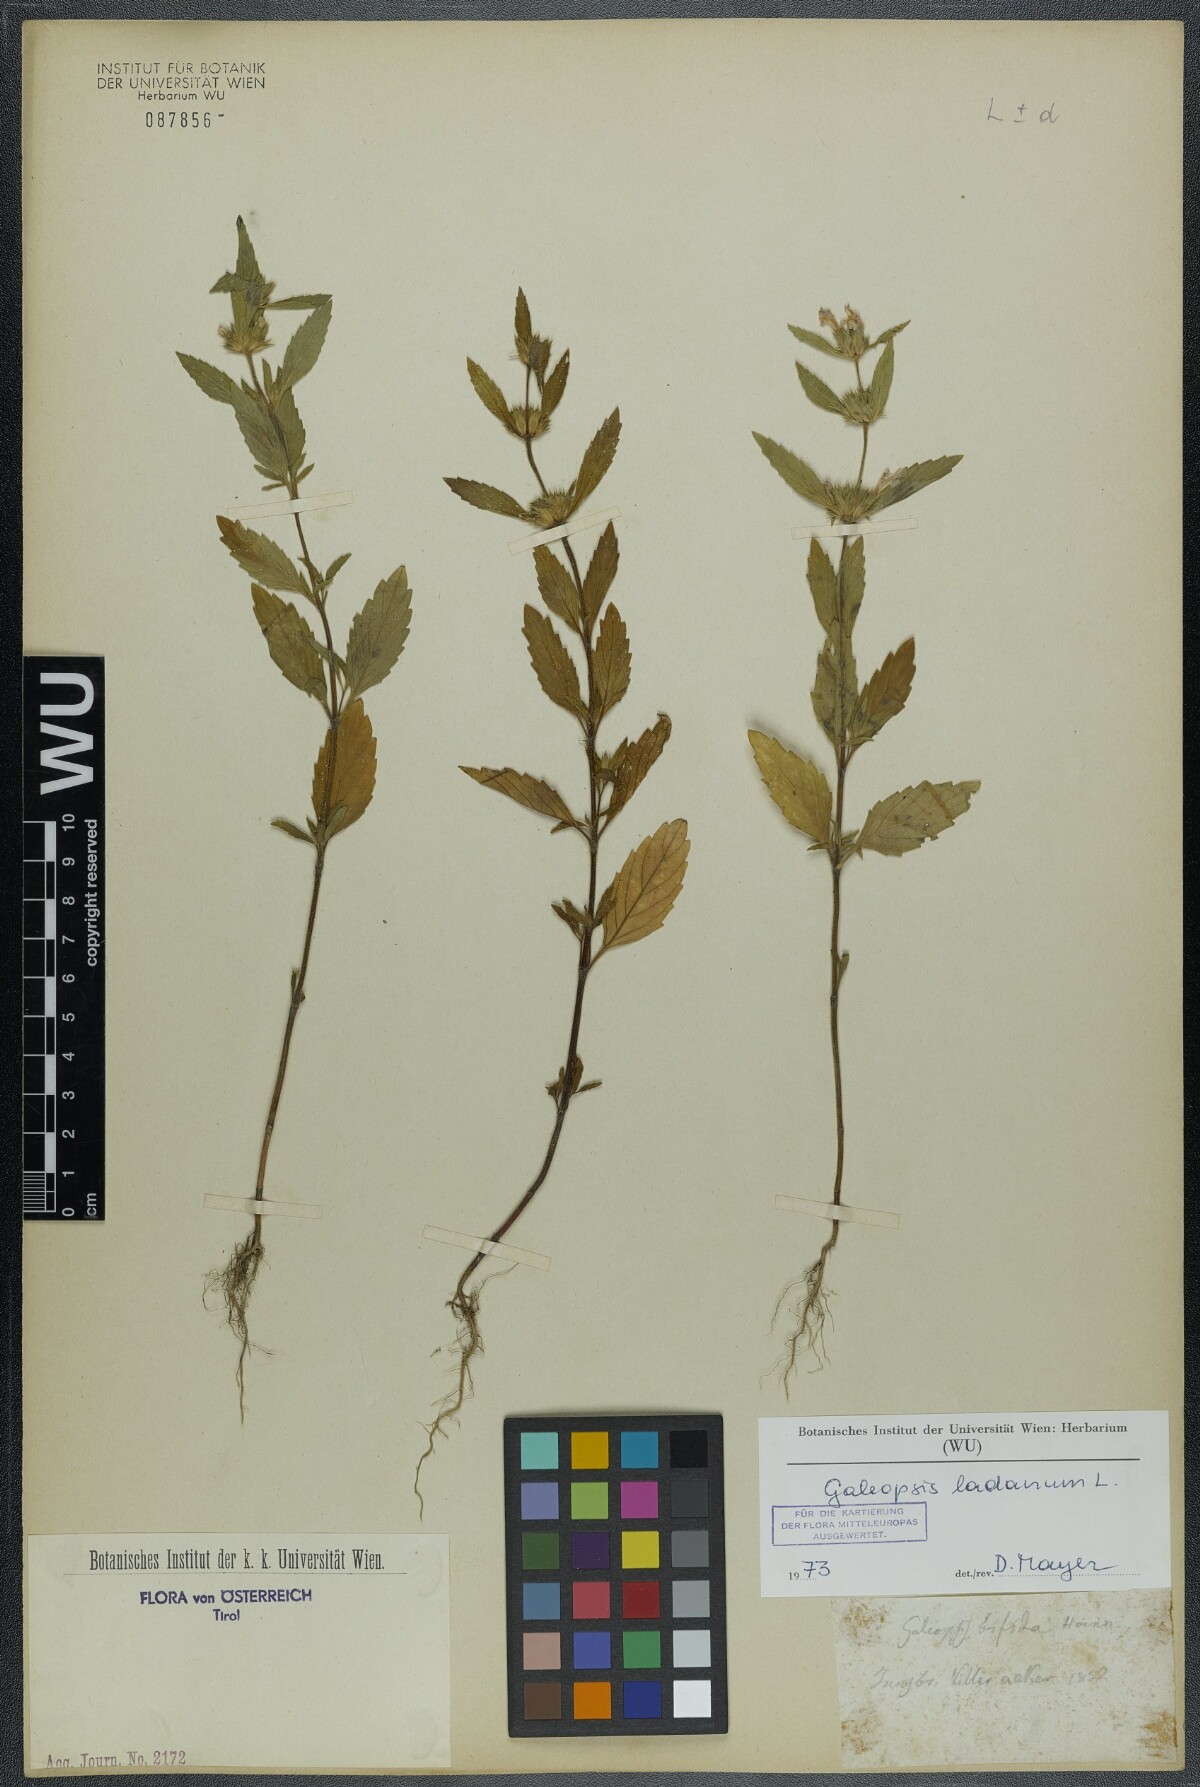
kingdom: Plantae
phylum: Tracheophyta
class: Magnoliopsida
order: Lamiales
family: Lamiaceae
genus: Galeopsis
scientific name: Galeopsis ladanum
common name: Broad-leaved hemp-nettle
